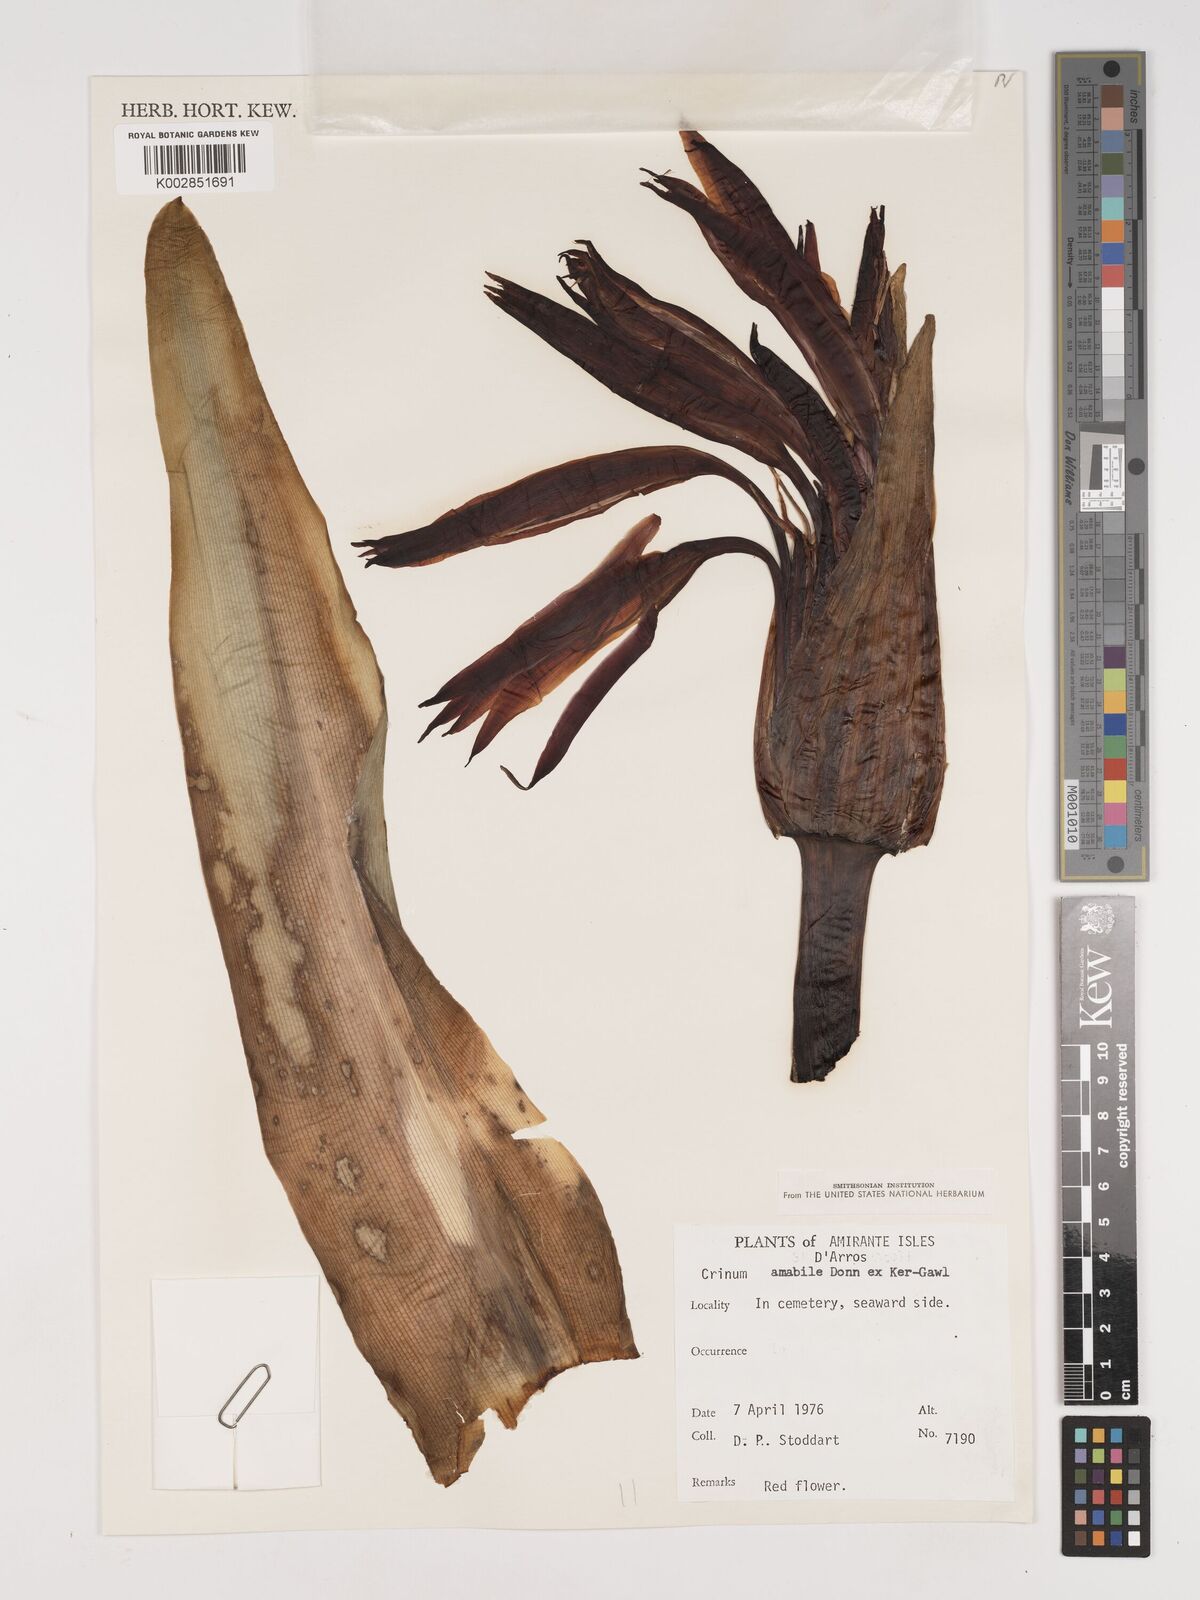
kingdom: Plantae
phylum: Tracheophyta
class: Liliopsida
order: Asparagales
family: Amaryllidaceae
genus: Crinum
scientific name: Crinum amabile
